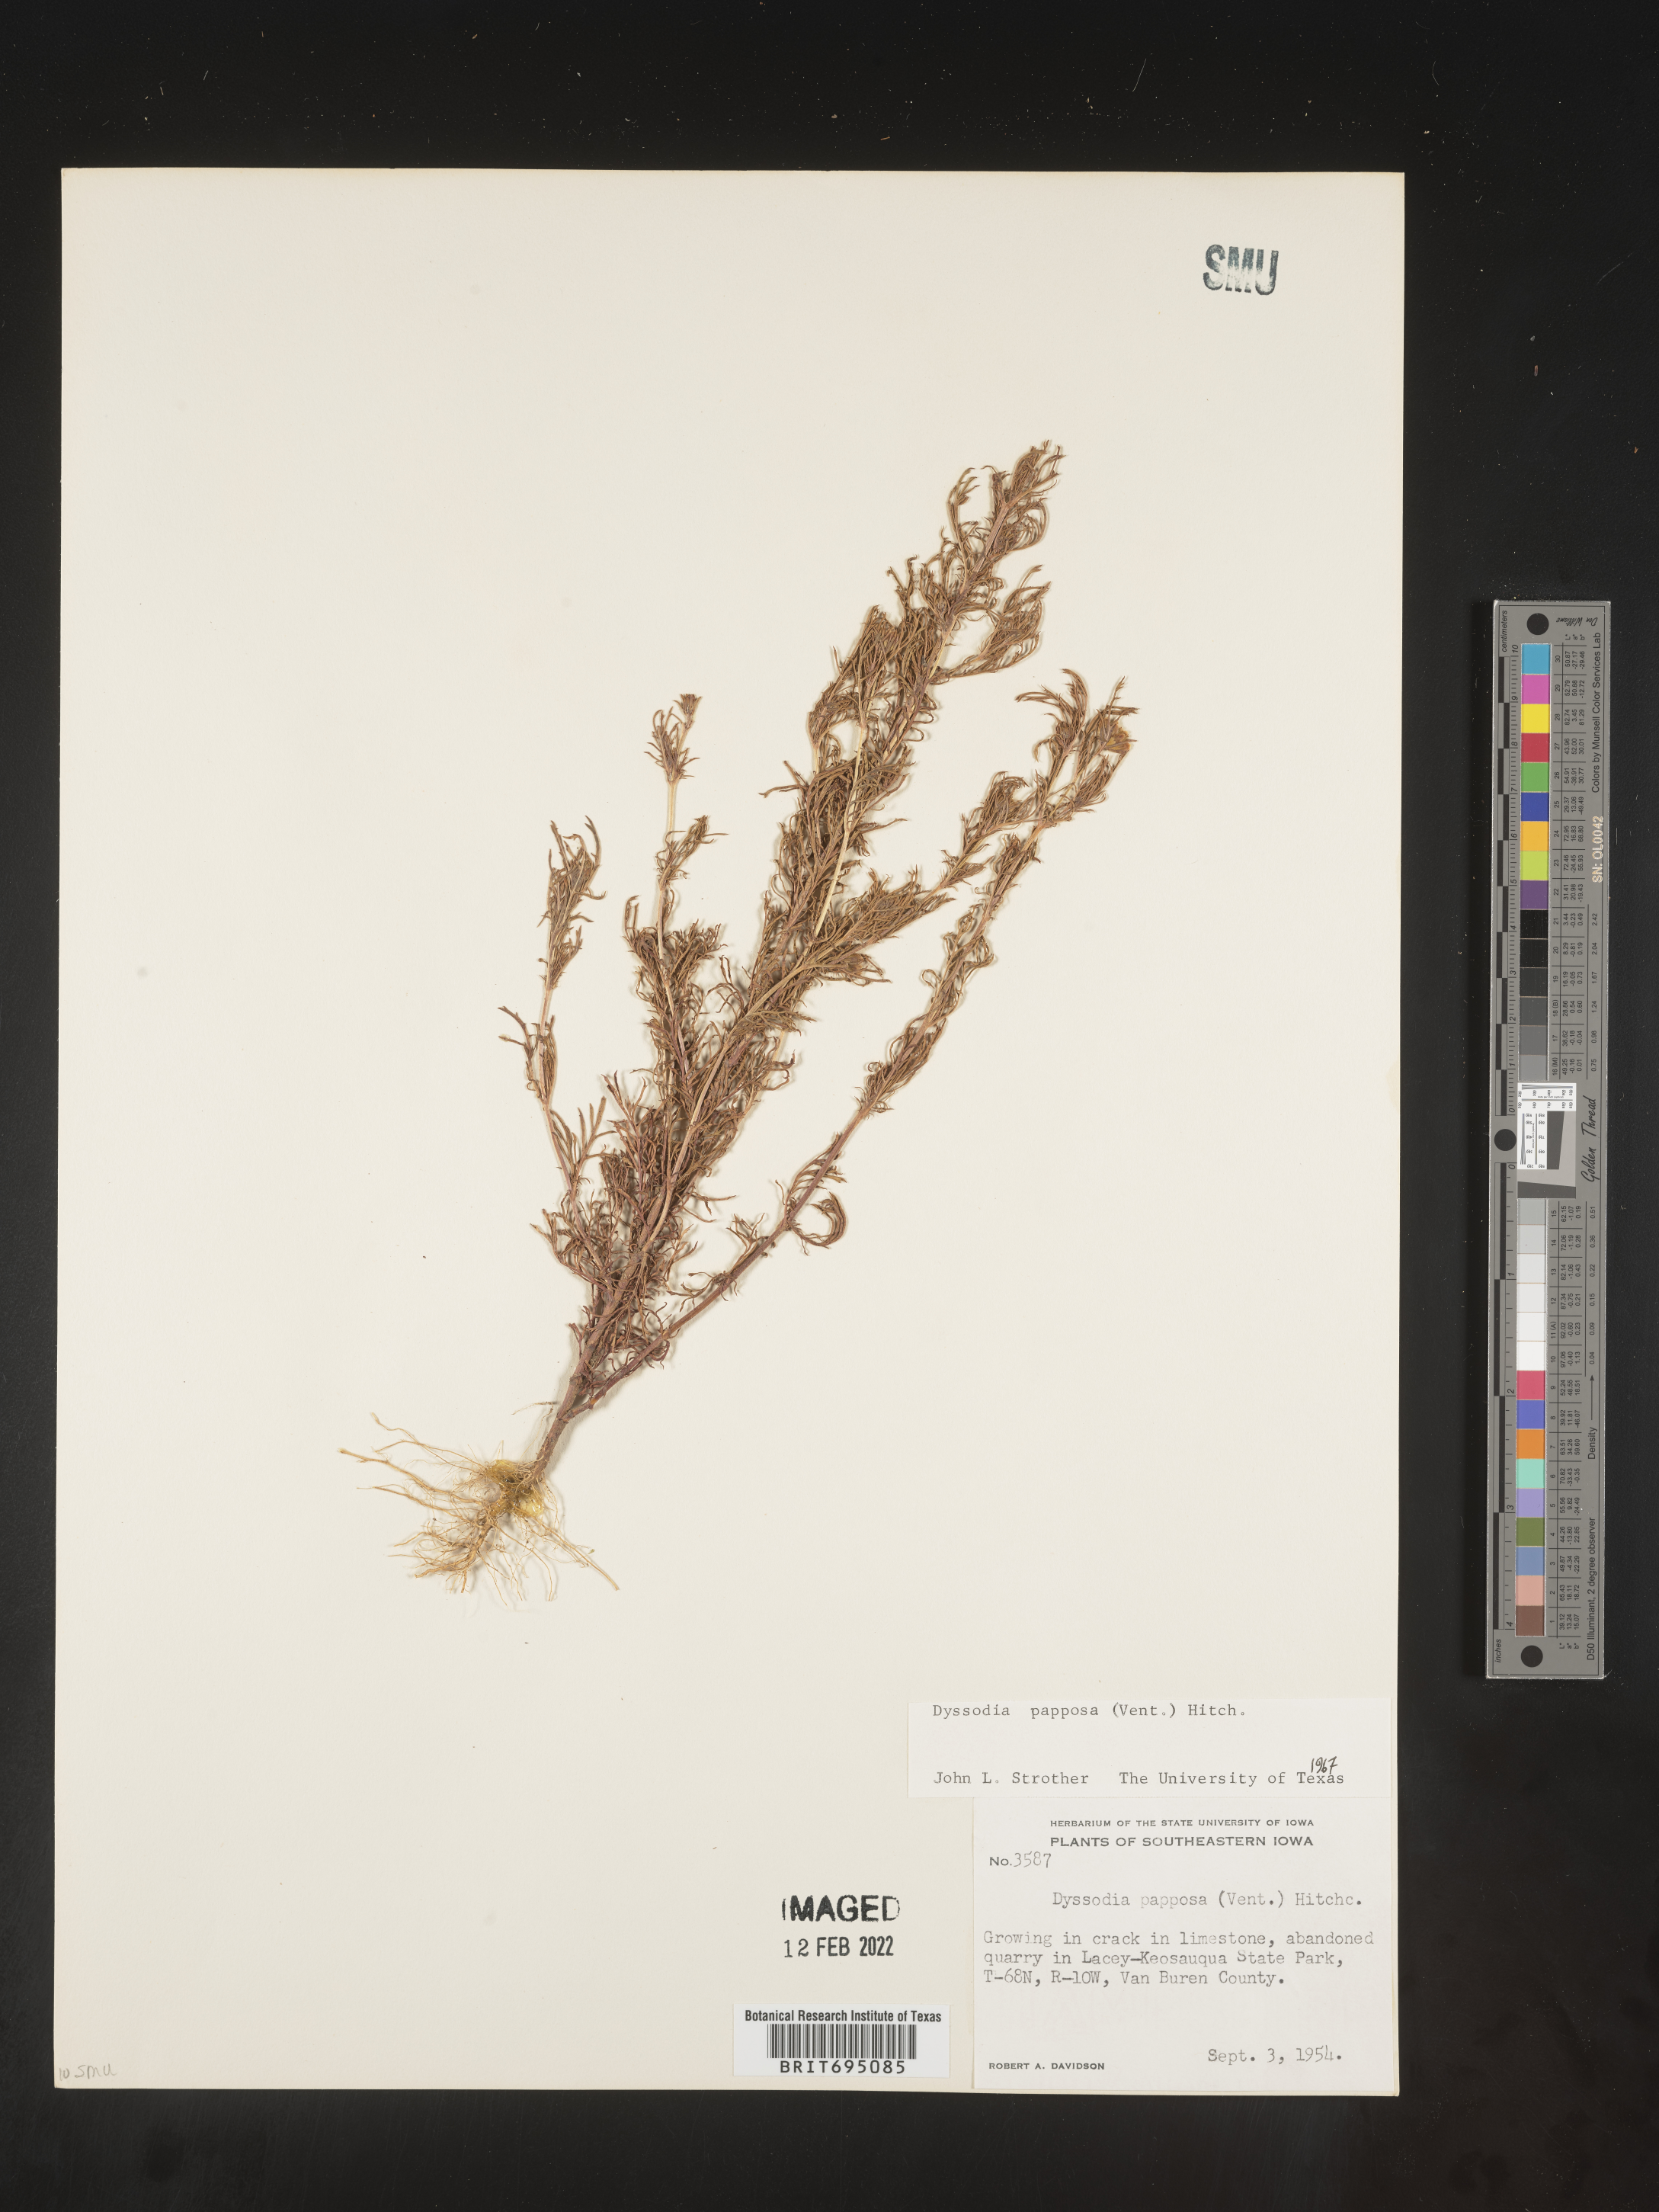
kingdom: Plantae
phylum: Tracheophyta
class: Magnoliopsida
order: Asterales
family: Asteraceae
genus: Dyssodia
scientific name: Dyssodia papposa
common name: Dogweed
